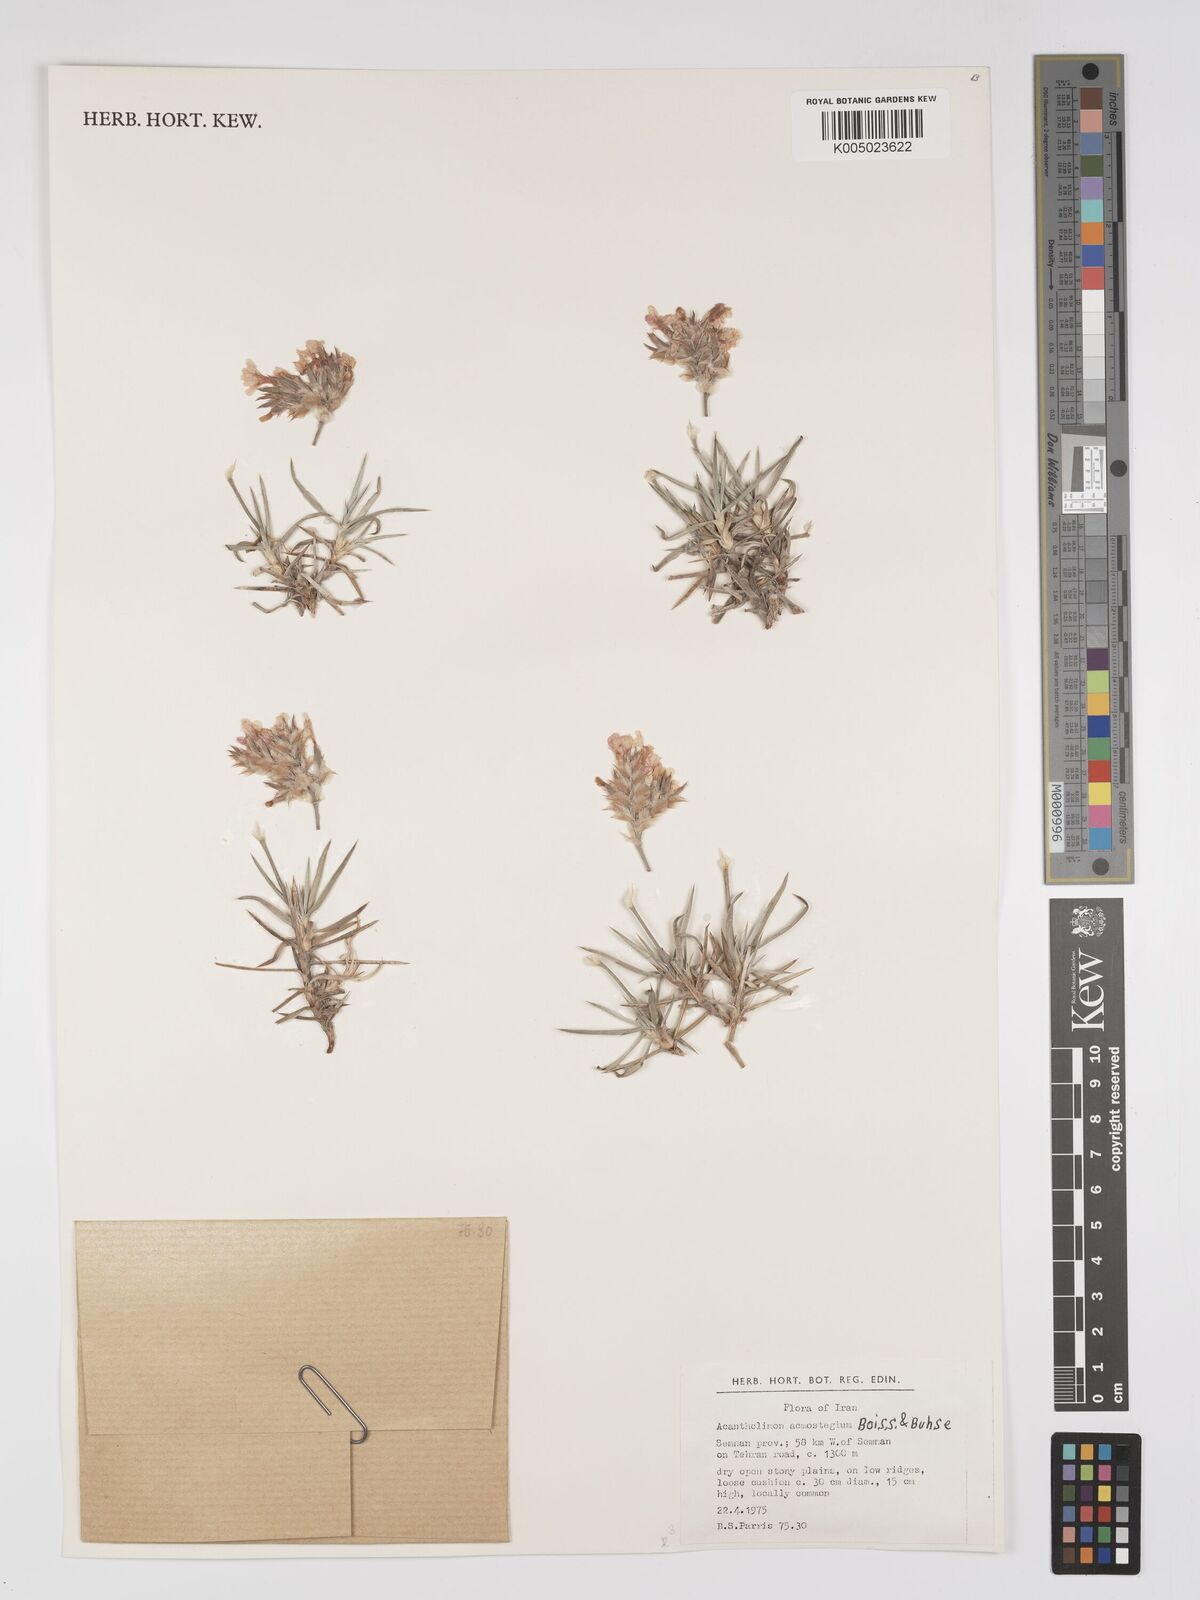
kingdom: Plantae
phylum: Tracheophyta
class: Magnoliopsida
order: Caryophyllales
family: Plumbaginaceae
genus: Acantholimon
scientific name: Acantholimon acmostegium
